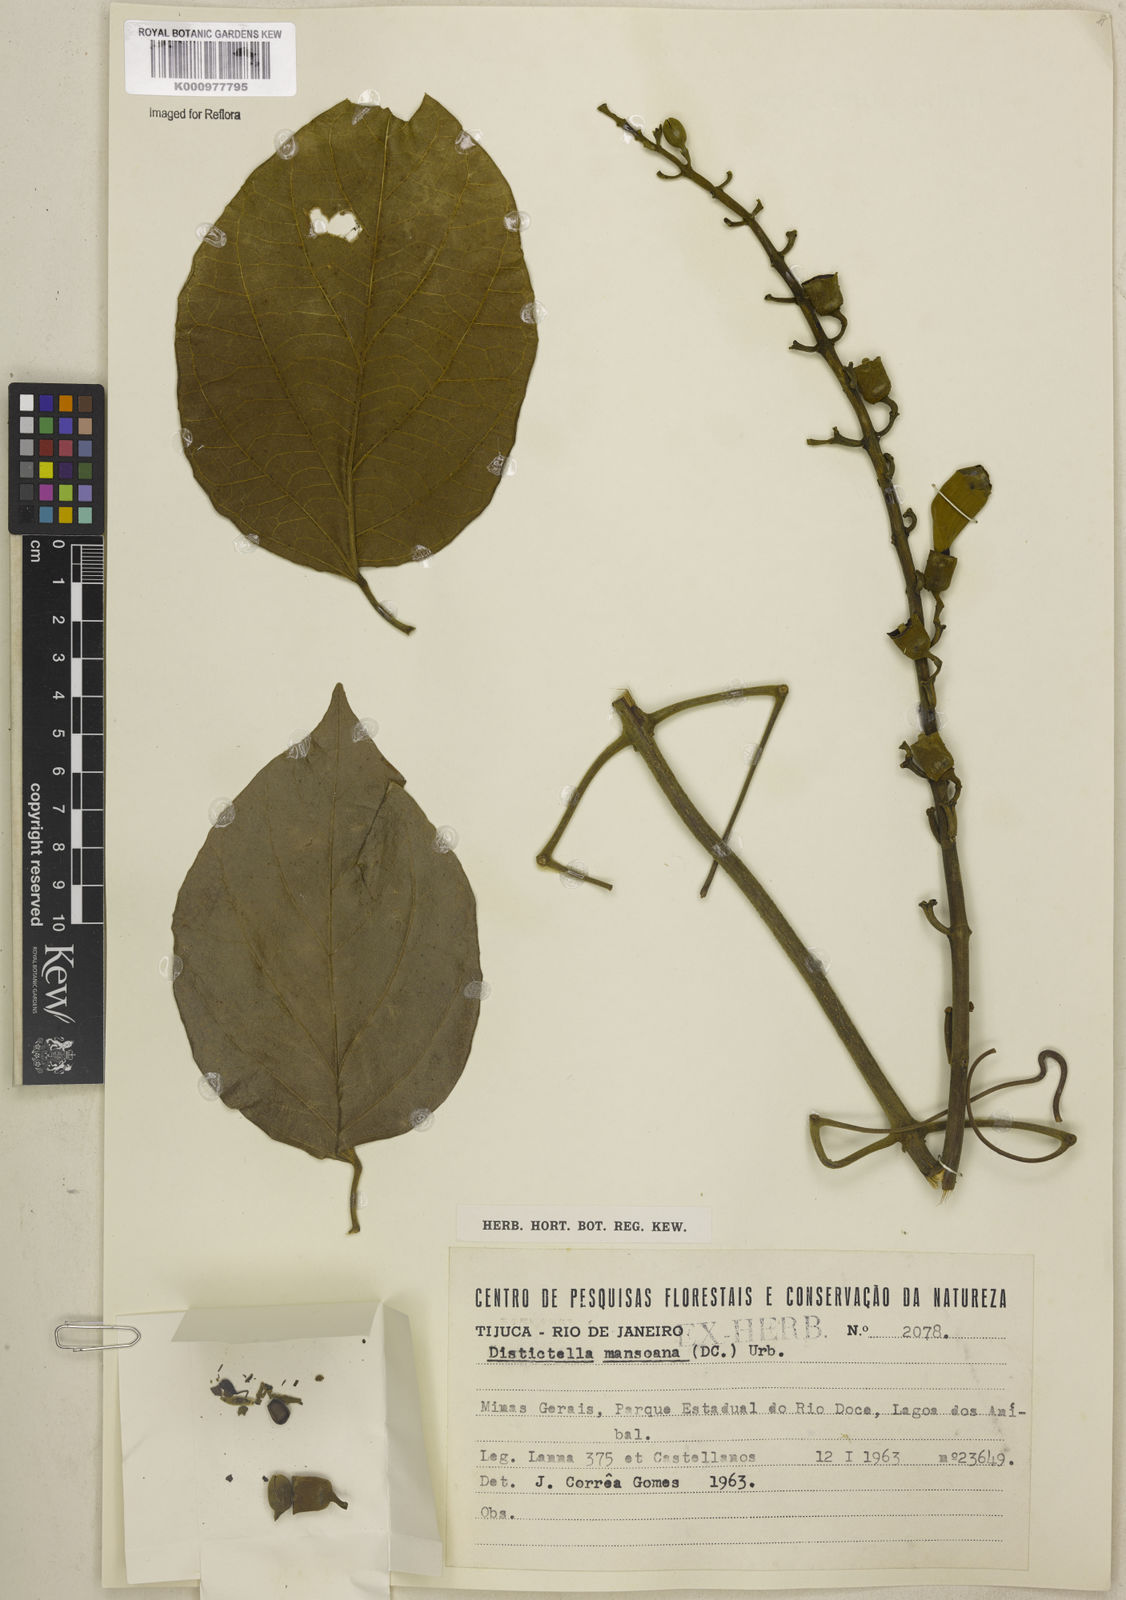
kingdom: Plantae
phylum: Tracheophyta
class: Magnoliopsida
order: Lamiales
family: Bignoniaceae
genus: Amphilophium
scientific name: Amphilophium mansoanum
